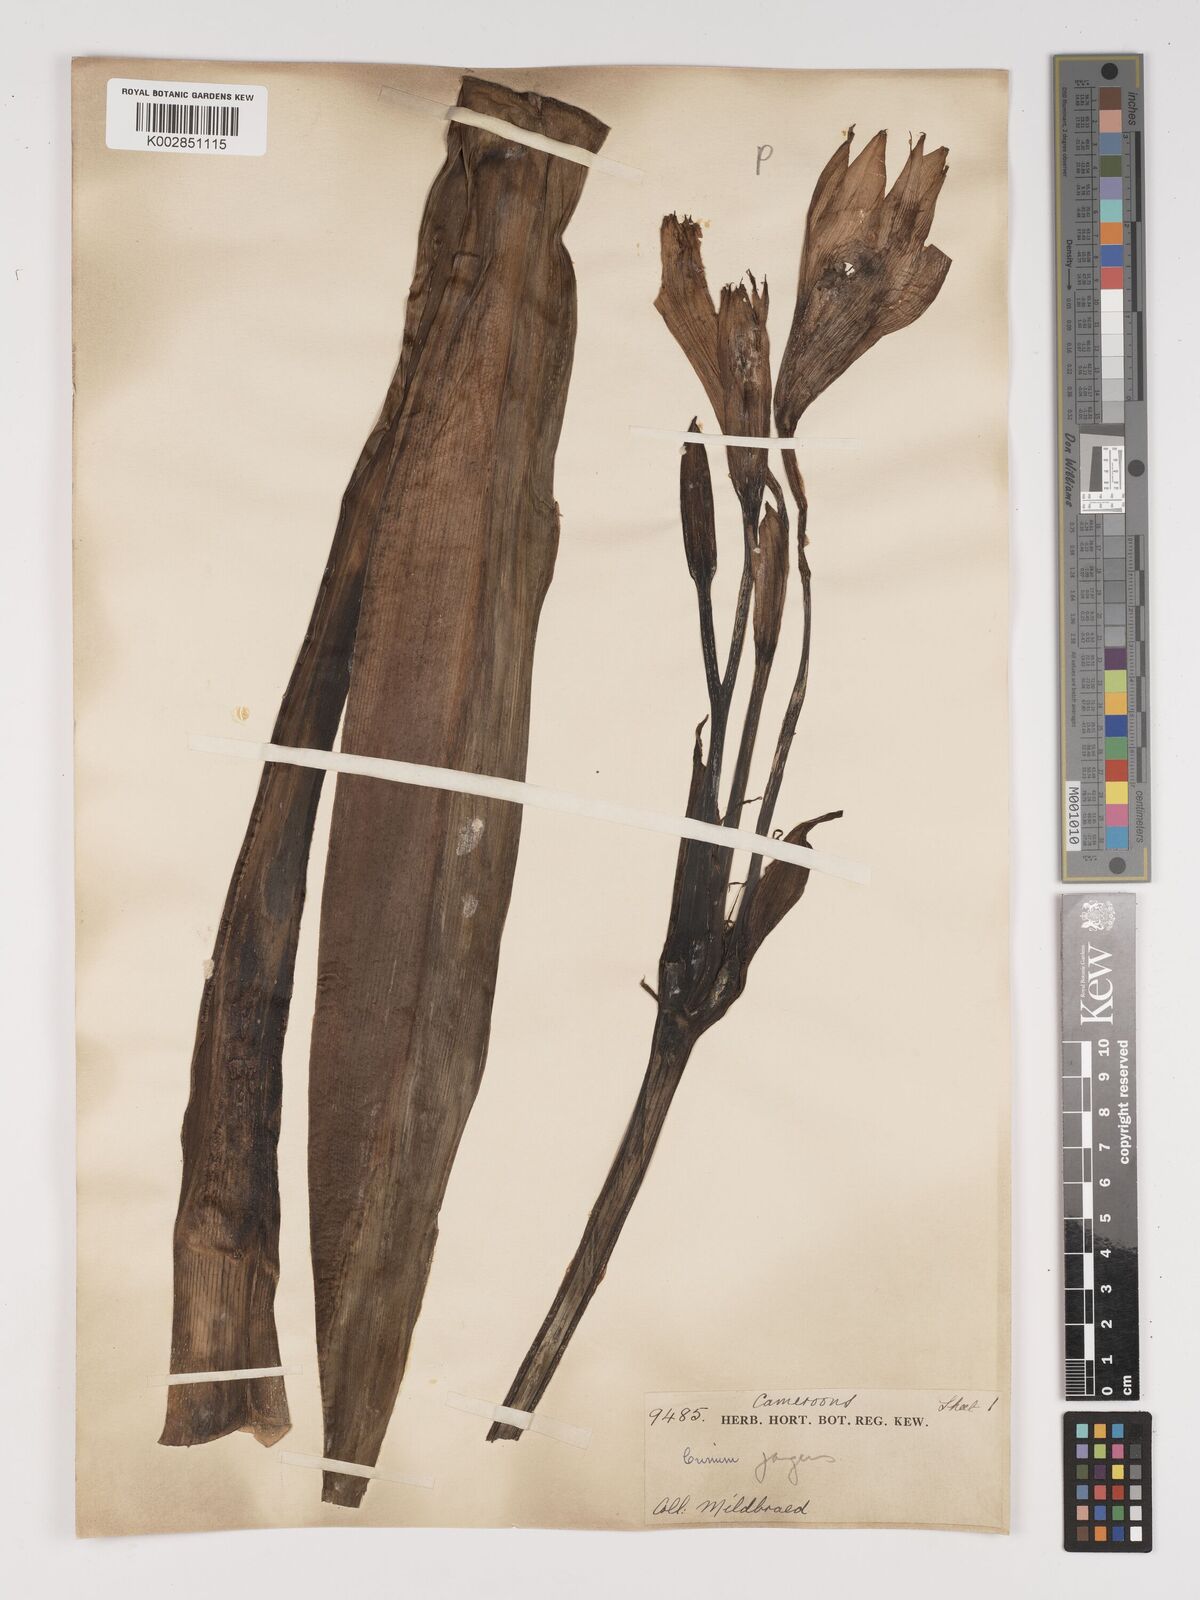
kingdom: Plantae
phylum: Tracheophyta
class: Liliopsida
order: Asparagales
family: Amaryllidaceae
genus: Crinum
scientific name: Crinum jagus
